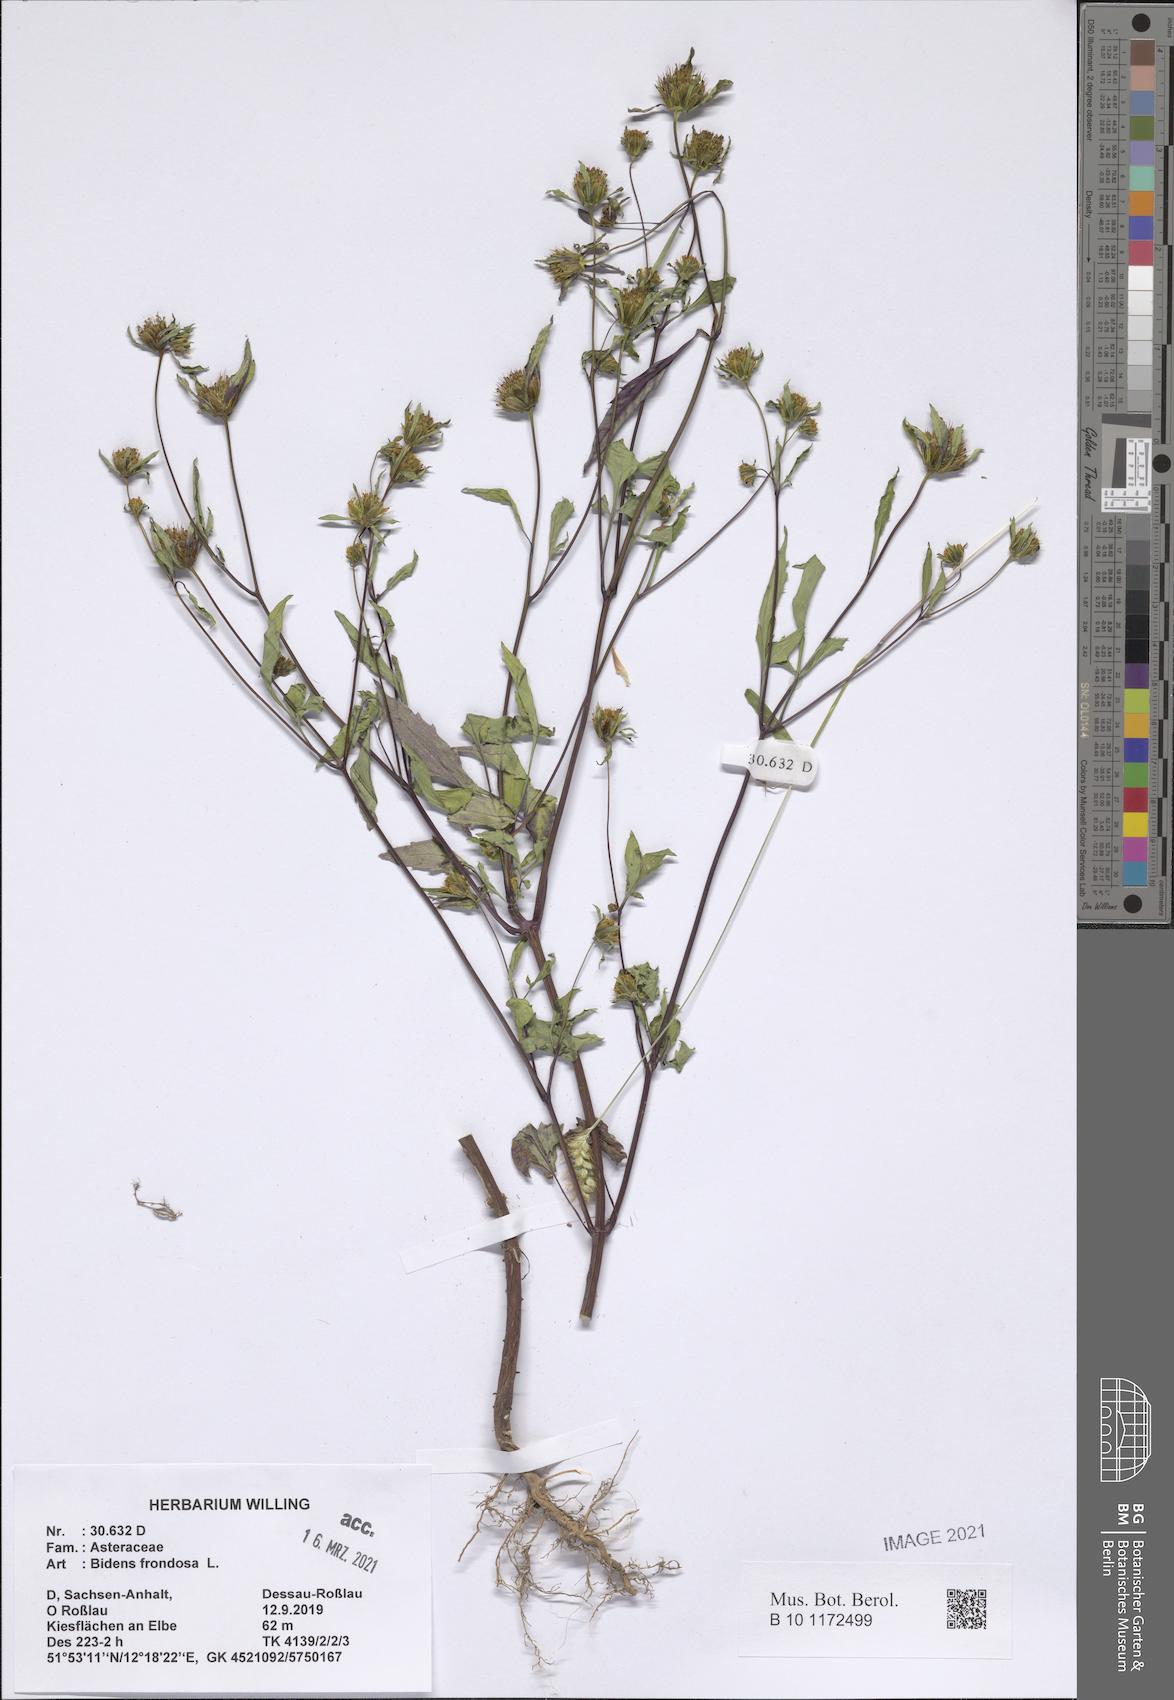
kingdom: Plantae
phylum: Tracheophyta
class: Magnoliopsida
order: Asterales
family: Asteraceae
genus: Bidens
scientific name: Bidens frondosa
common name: Beggarticks
